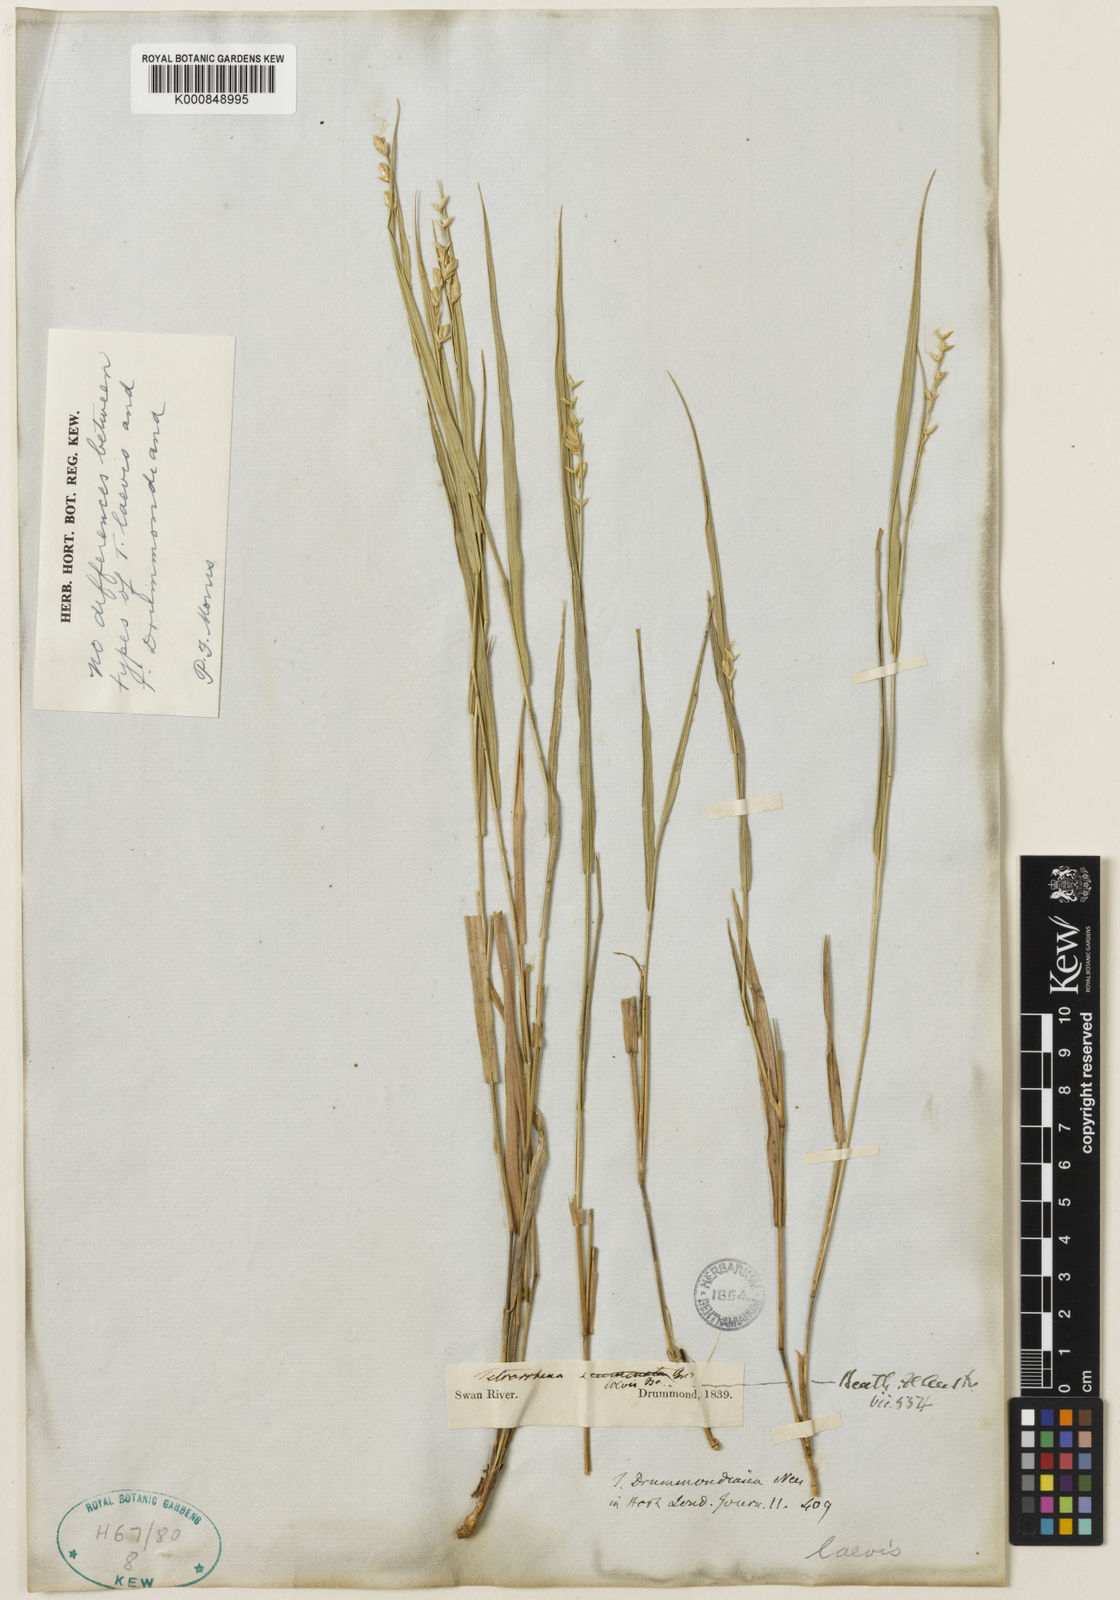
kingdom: Plantae
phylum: Tracheophyta
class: Liliopsida
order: Poales
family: Poaceae
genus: Tetrarrhena
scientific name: Tetrarrhena laevis
